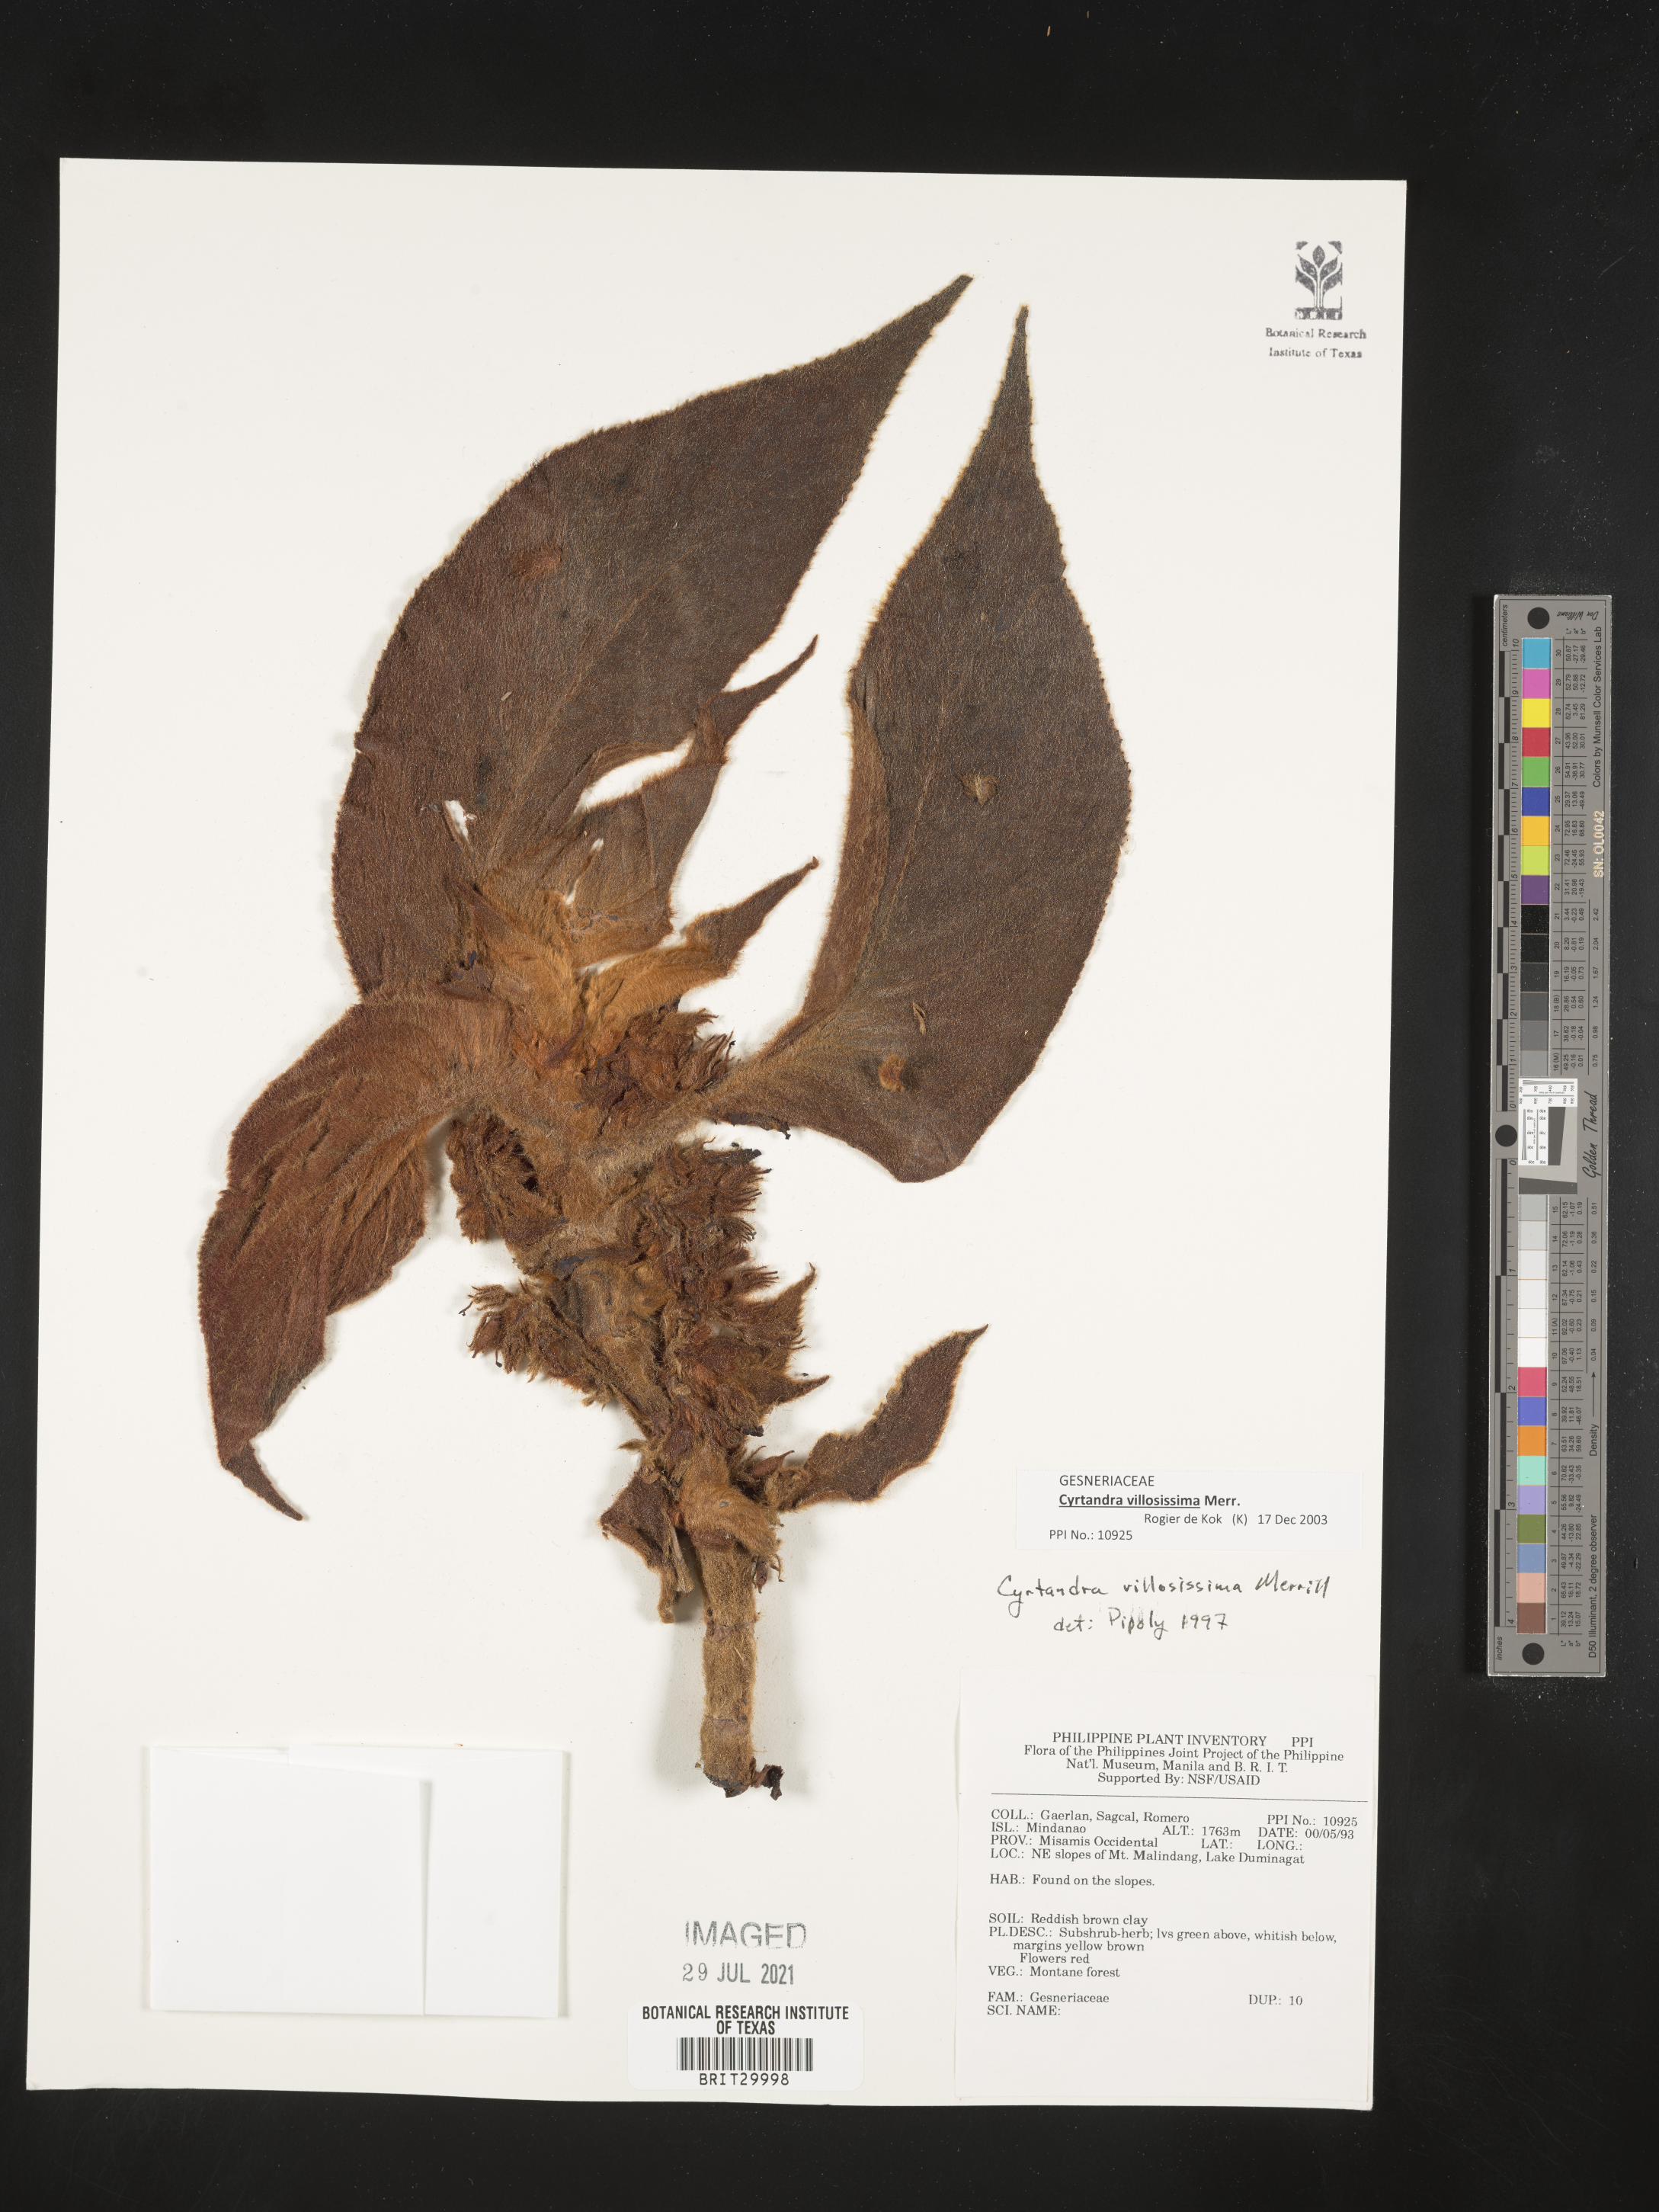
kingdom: Plantae
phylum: Tracheophyta
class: Magnoliopsida
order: Lamiales
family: Gesneriaceae
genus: Cyrtandra
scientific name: Cyrtandra villosissima
